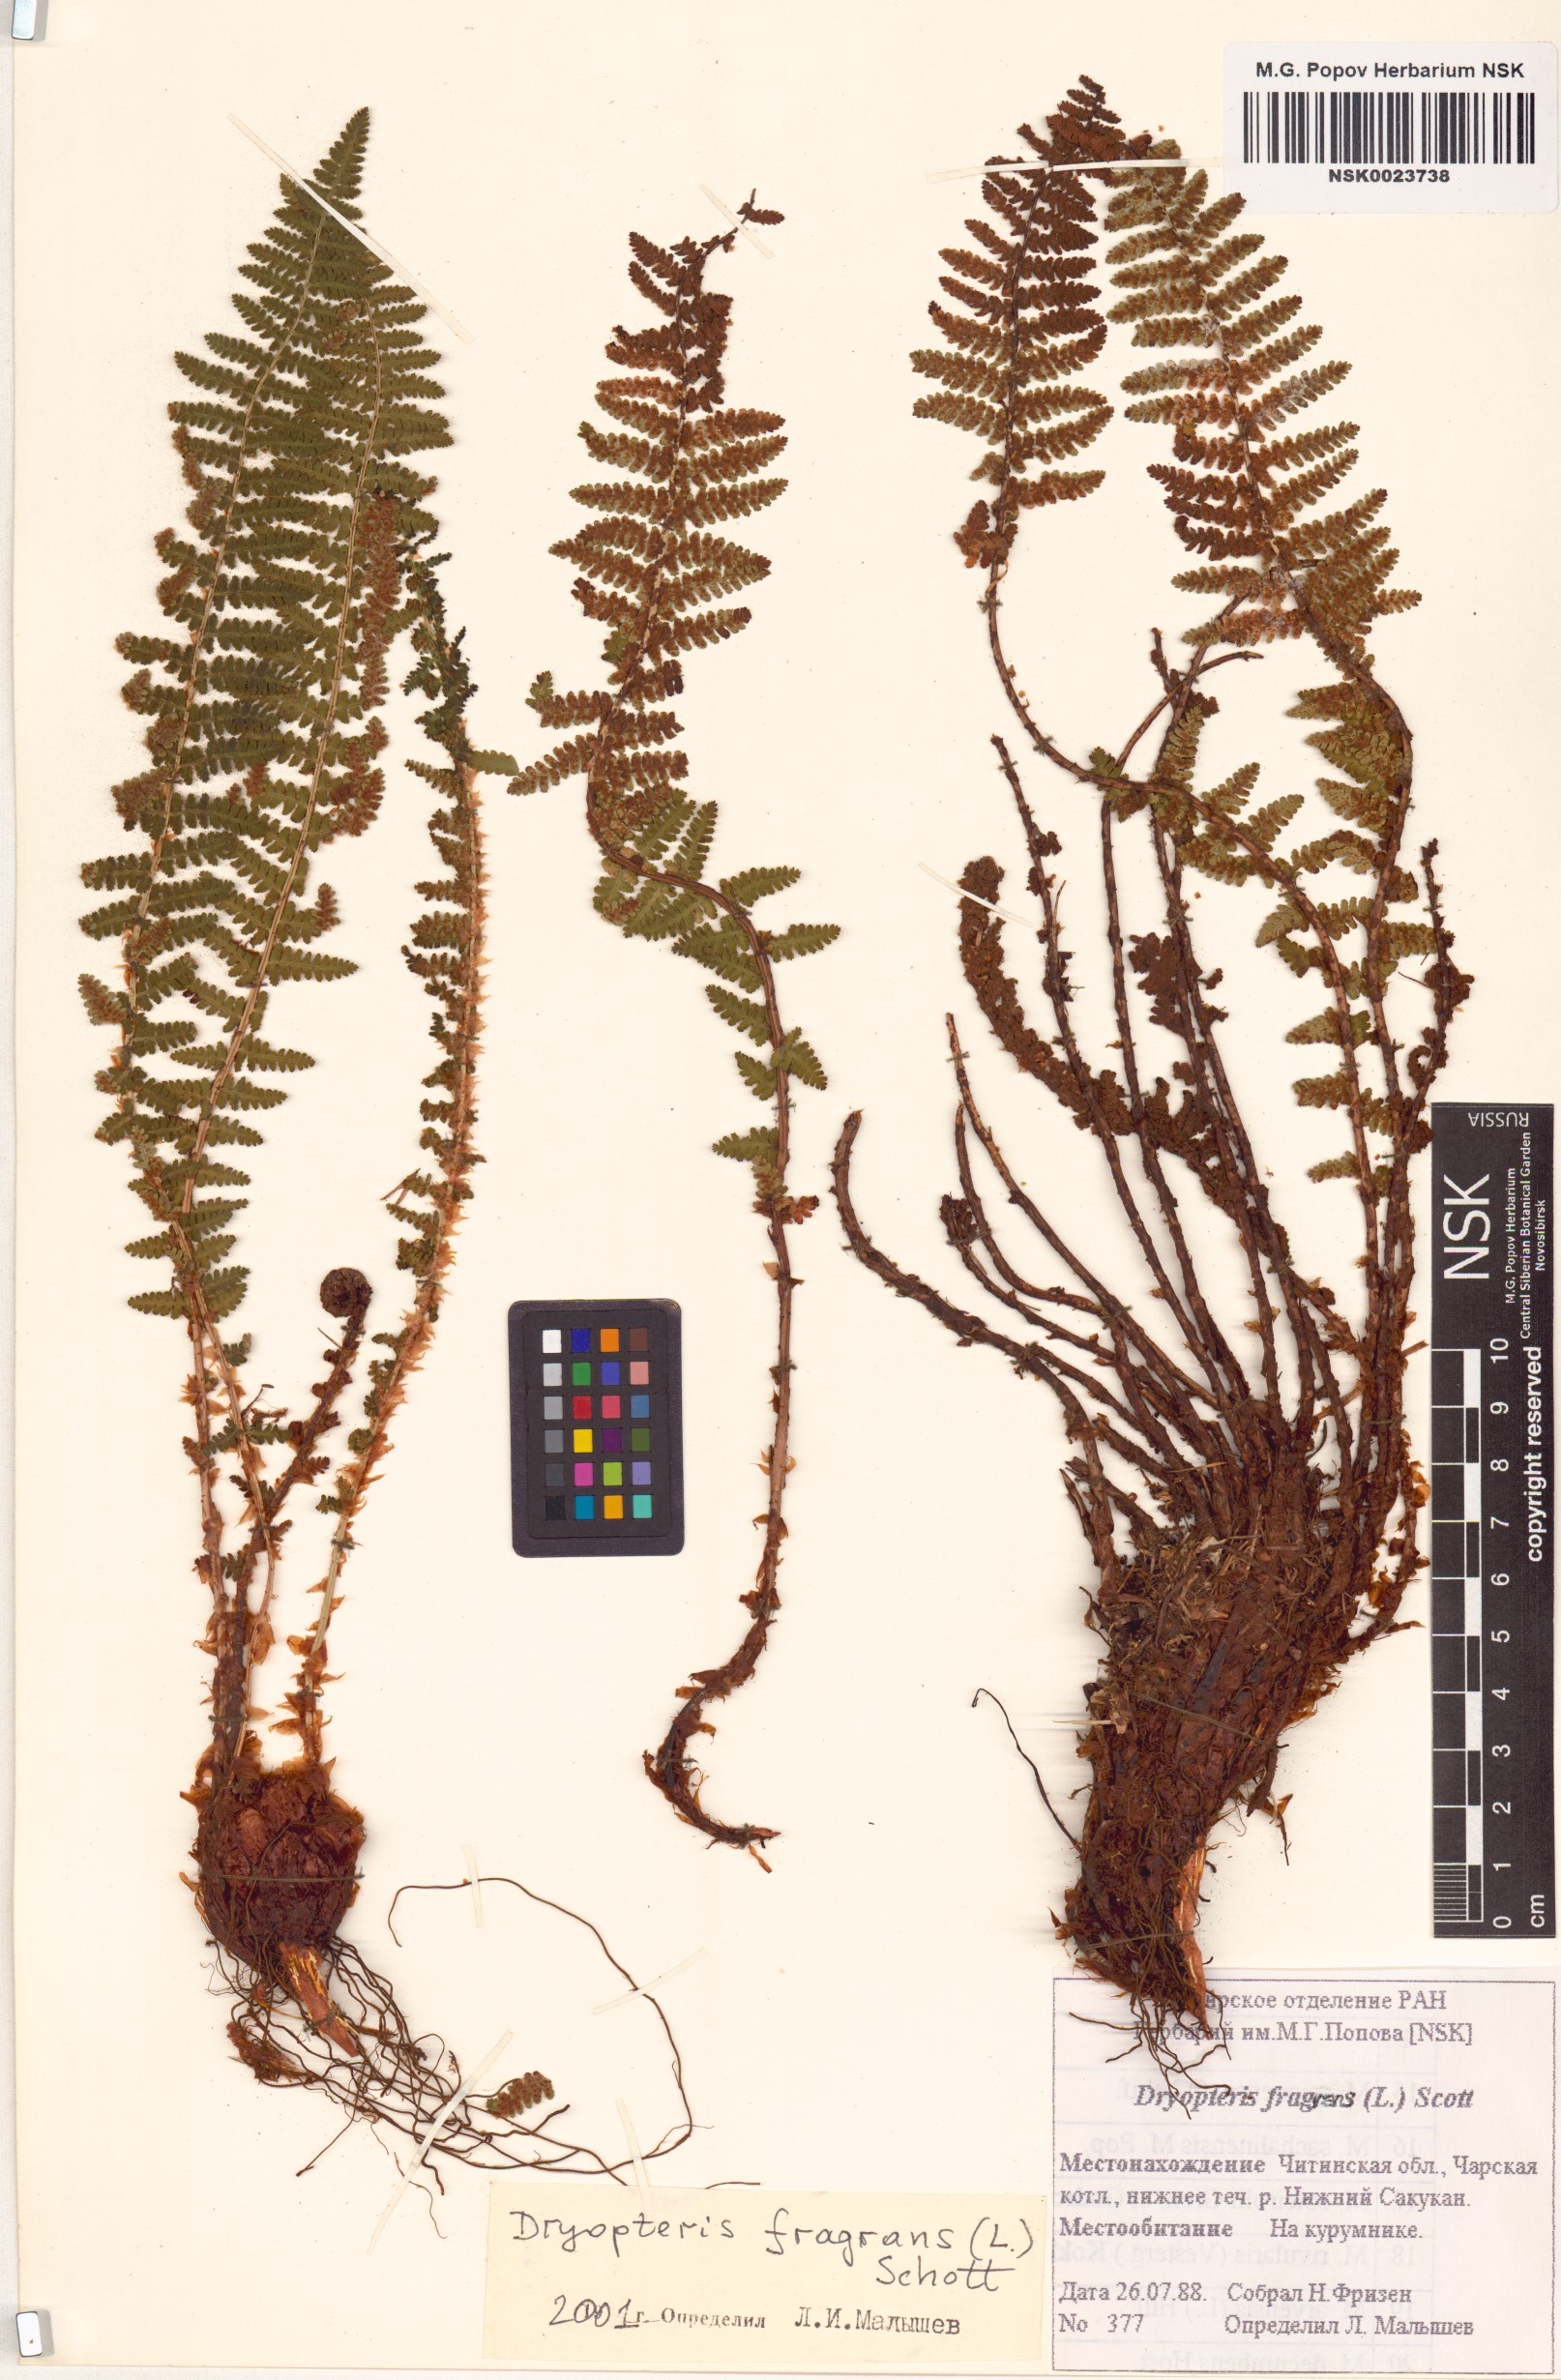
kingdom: Plantae
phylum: Tracheophyta
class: Polypodiopsida
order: Polypodiales
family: Dryopteridaceae
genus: Dryopteris
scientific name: Dryopteris fragrans
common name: Fragrant wood fern
